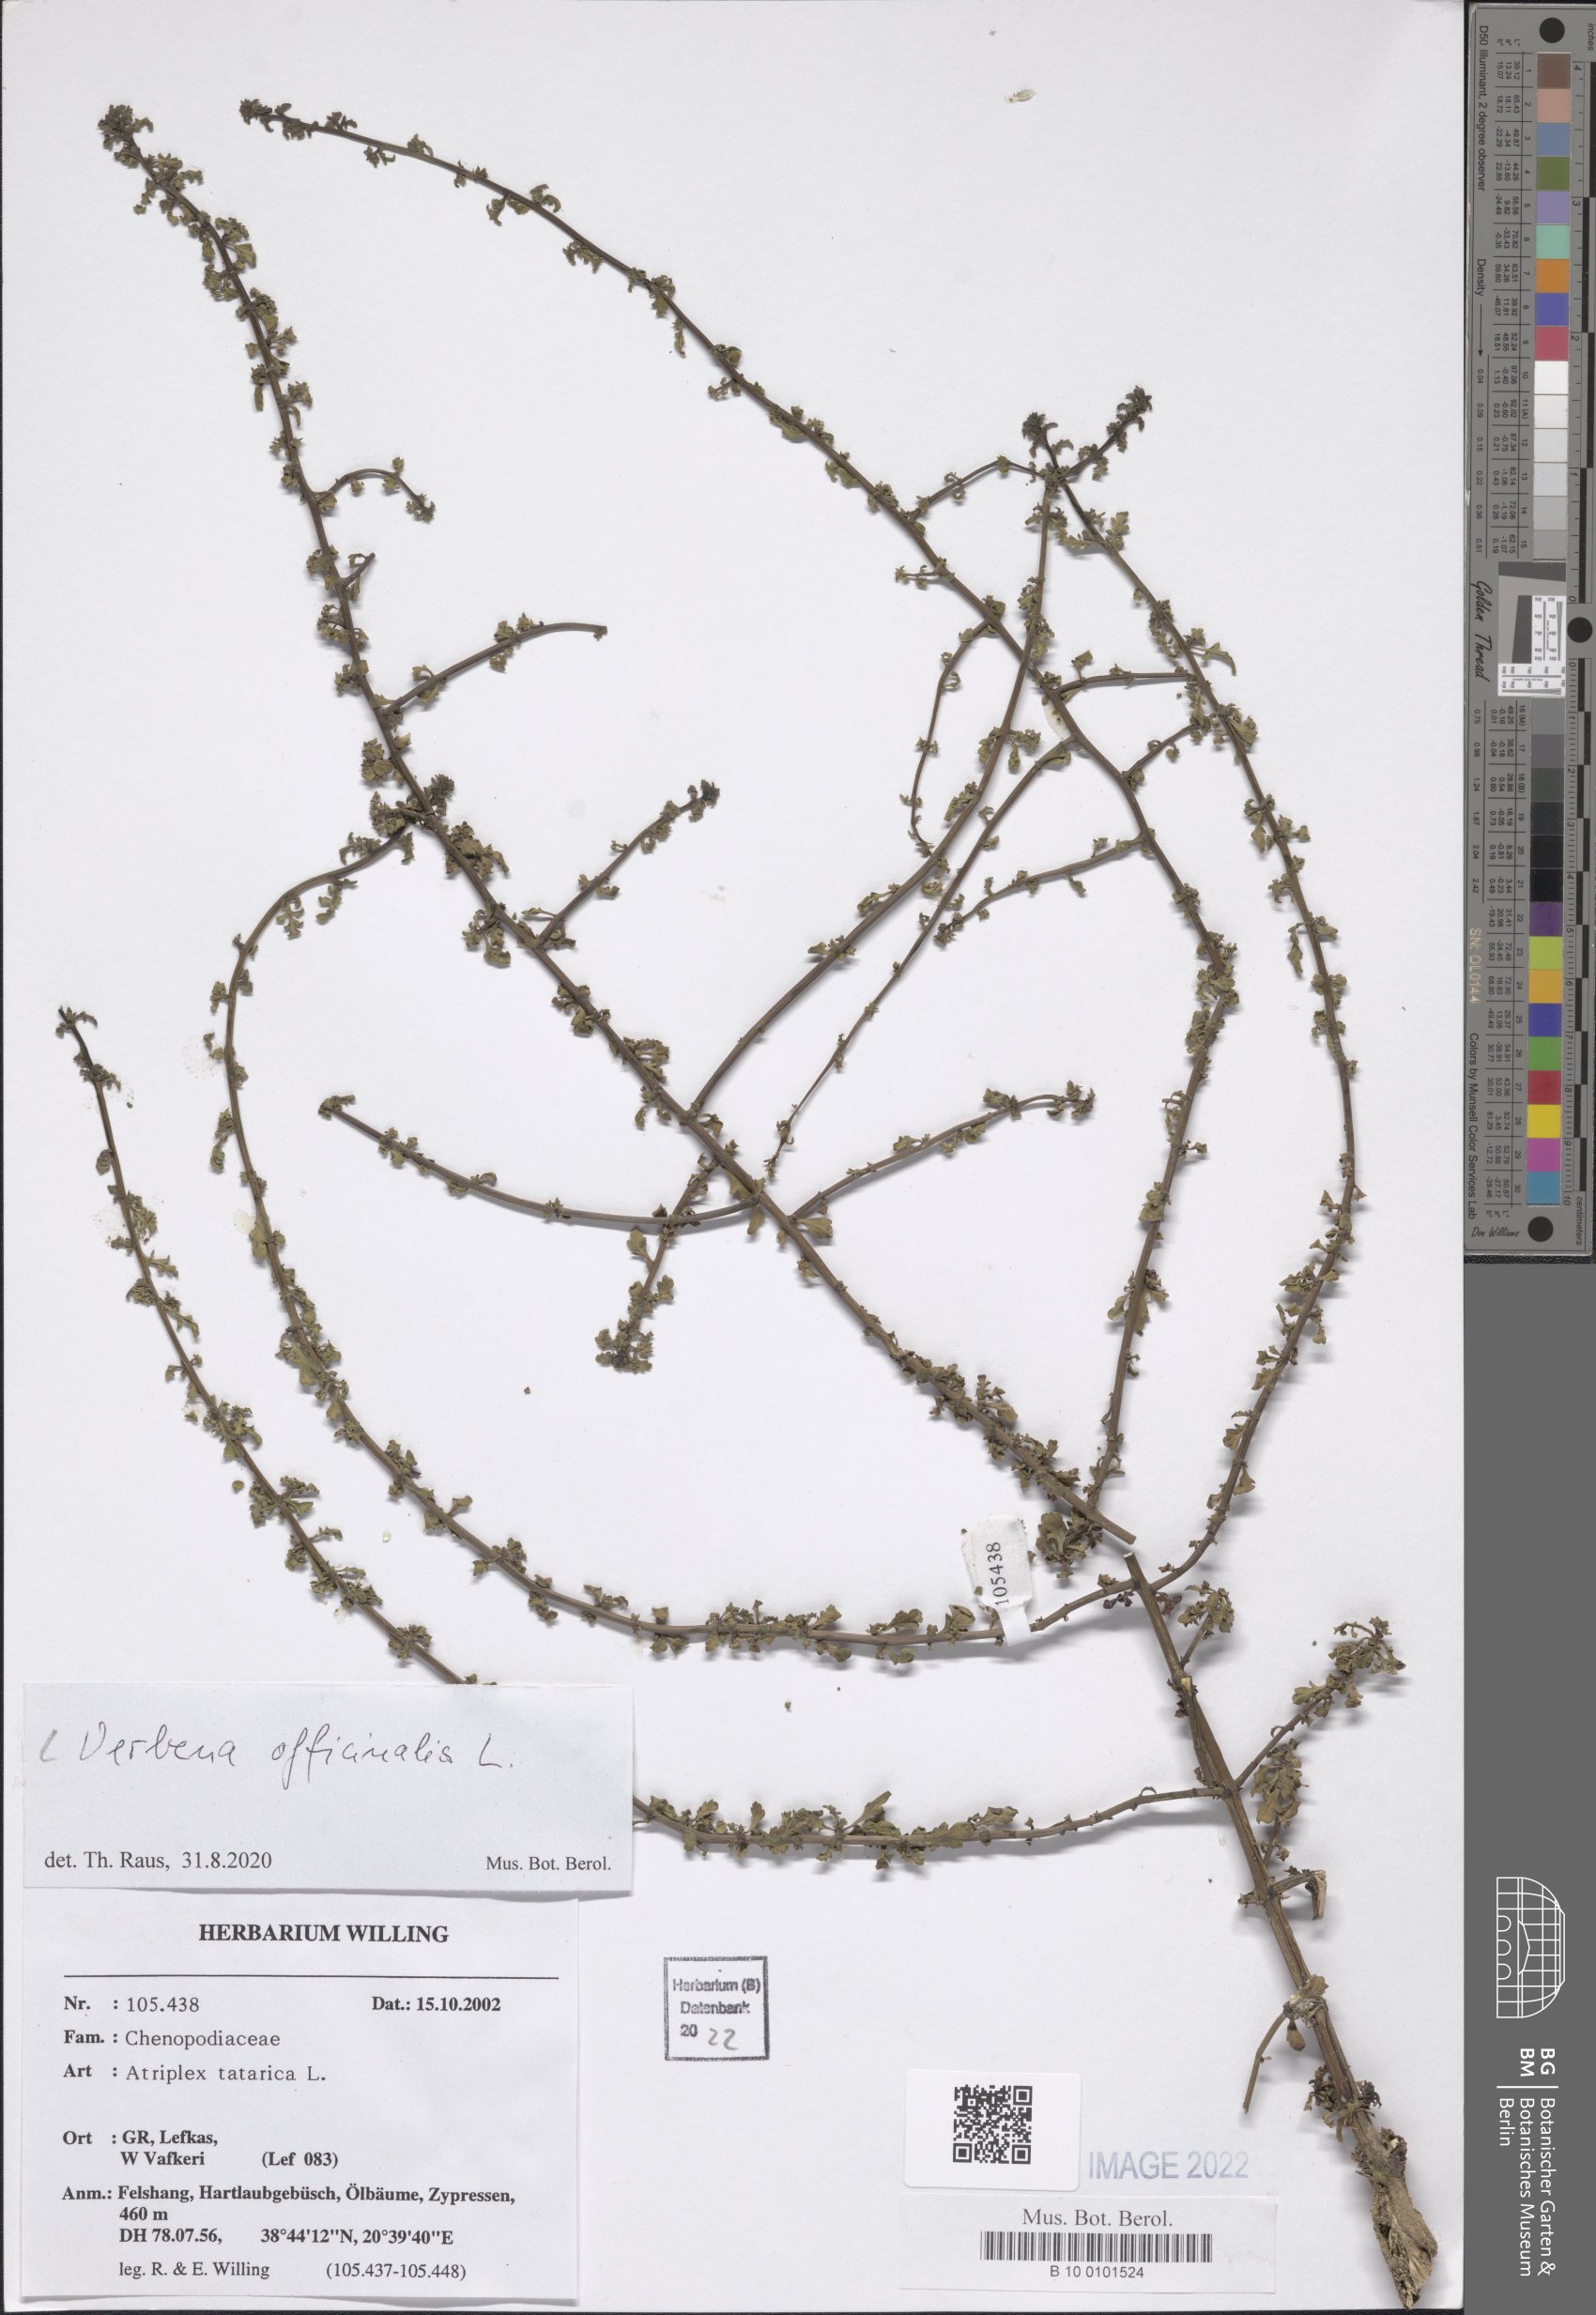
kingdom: Plantae
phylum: Tracheophyta
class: Magnoliopsida
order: Lamiales
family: Verbenaceae
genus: Verbena
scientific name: Verbena officinalis
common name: Vervain
